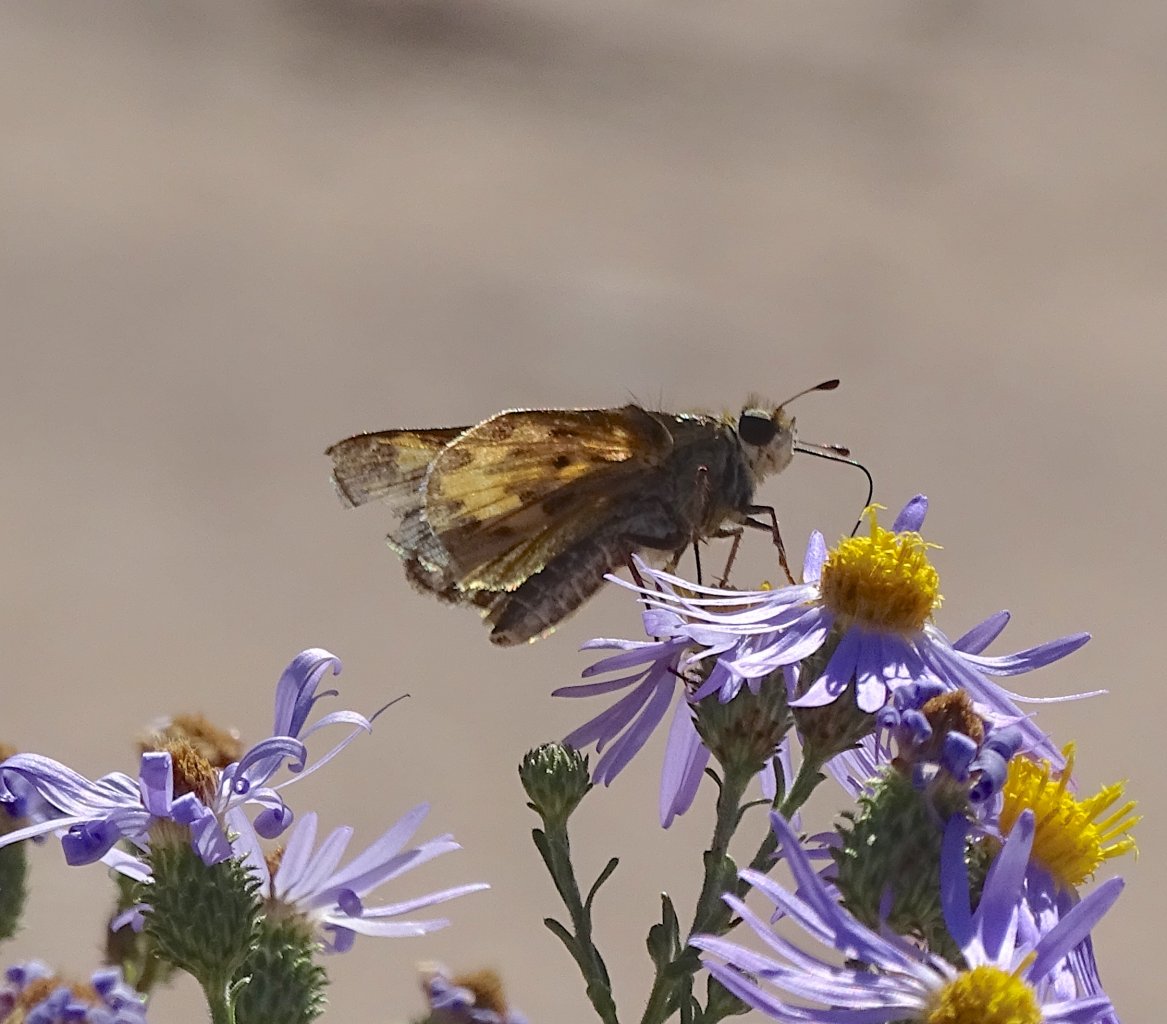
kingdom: Animalia
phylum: Arthropoda
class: Insecta
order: Lepidoptera
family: Hesperiidae
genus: Hylephila
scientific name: Hylephila phyleus
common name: Fiery Skipper
